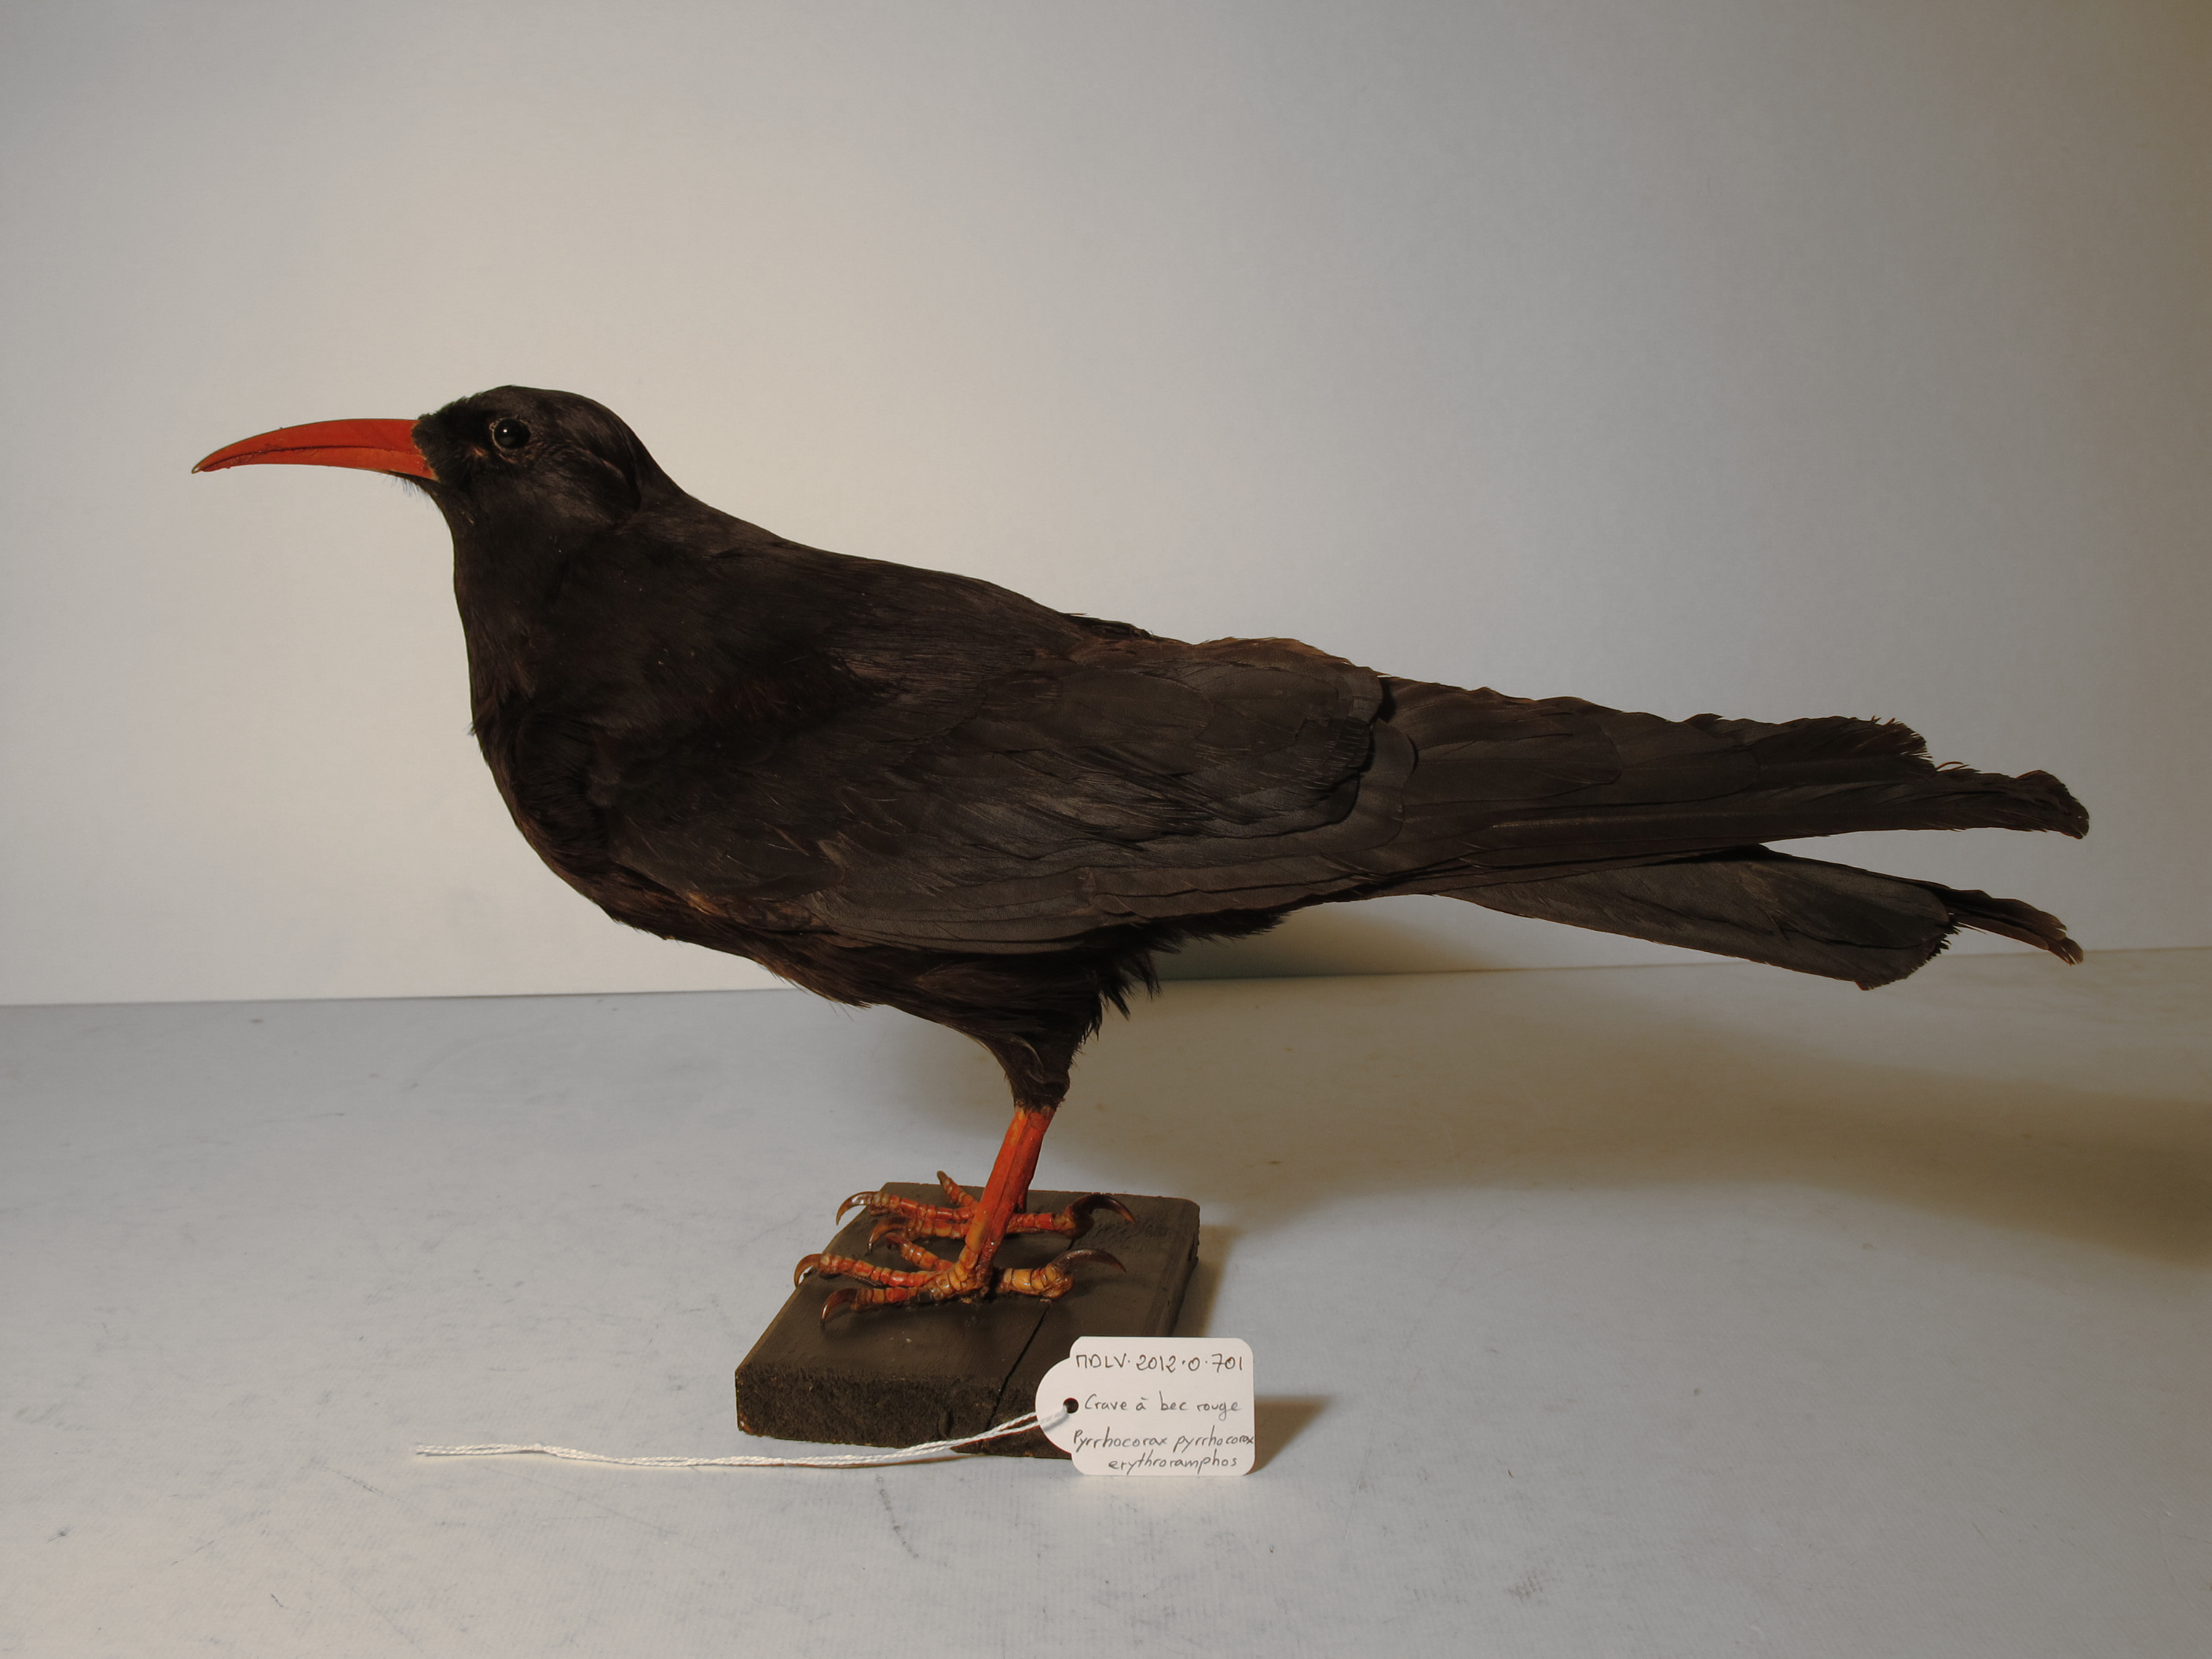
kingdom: Animalia
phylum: Chordata
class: Aves
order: Passeriformes
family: Corvidae
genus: Pyrrhocorax
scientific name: Pyrrhocorax pyrrhocorax
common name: Red-billed Chough
